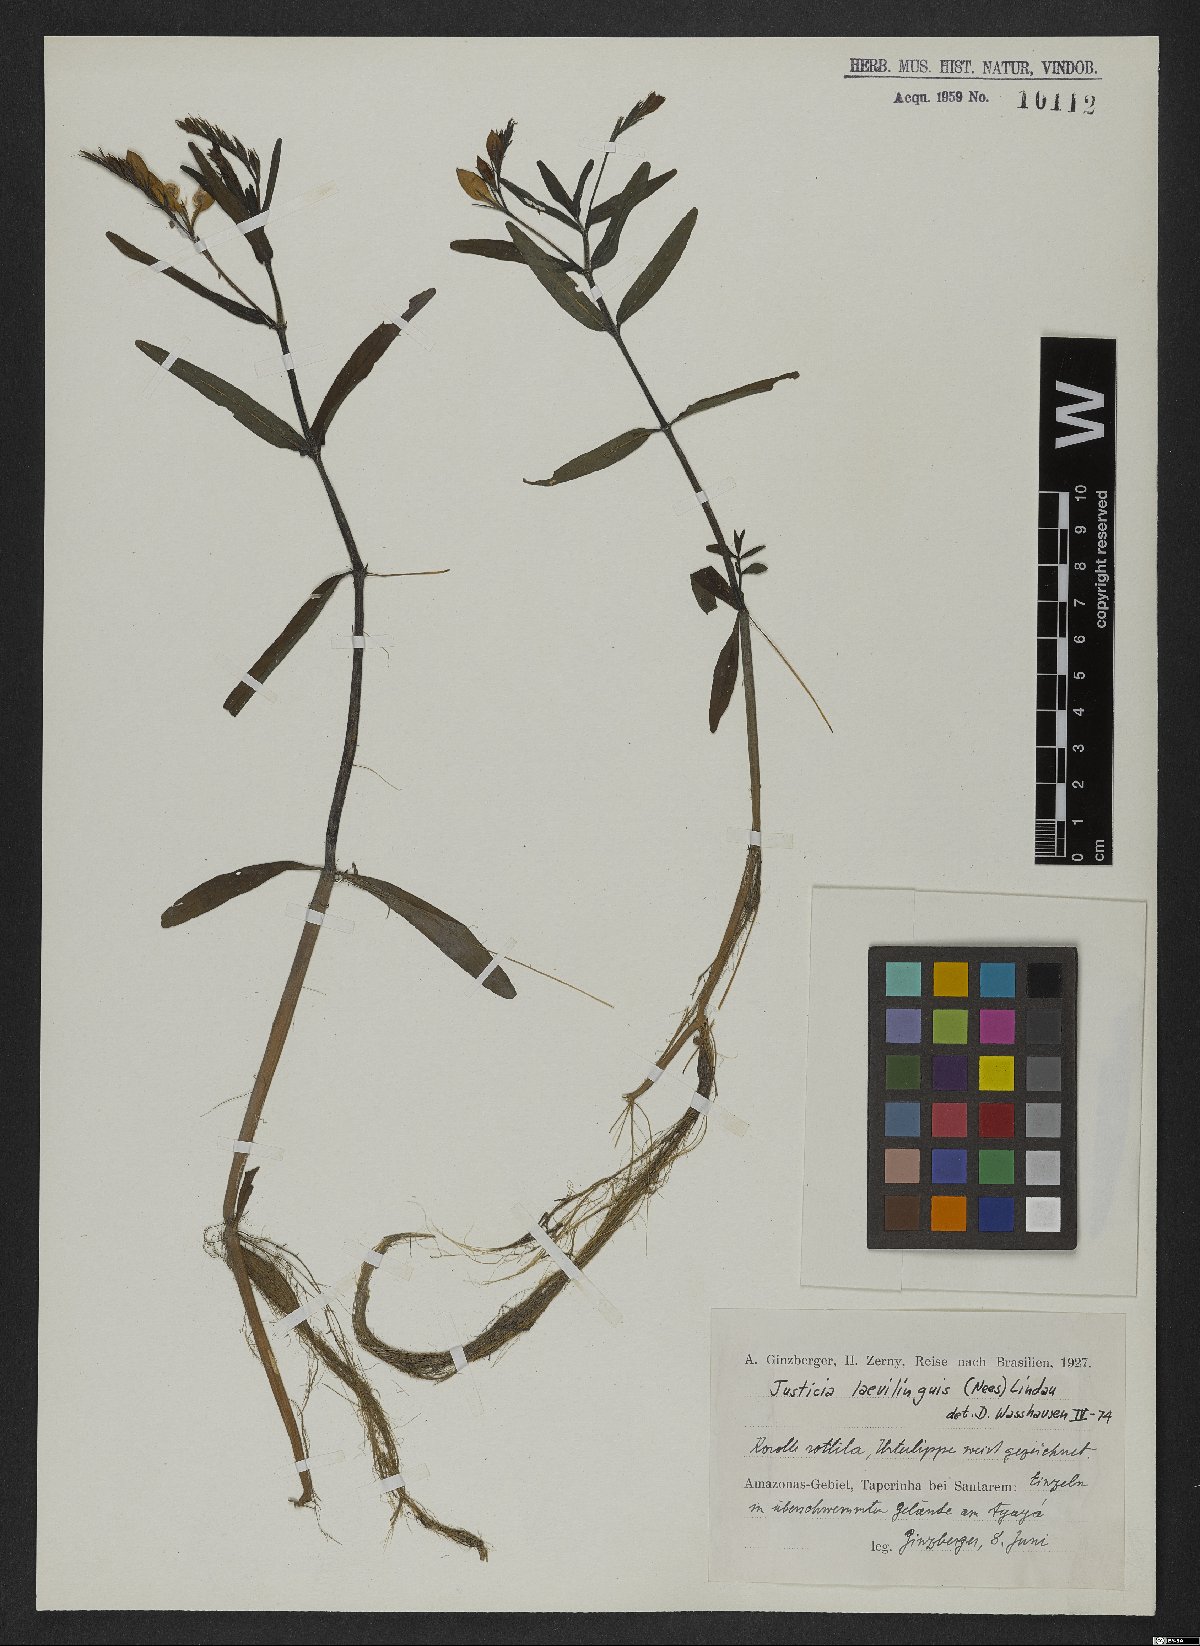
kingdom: Plantae
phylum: Tracheophyta
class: Magnoliopsida
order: Lamiales
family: Acanthaceae
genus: Dianthera
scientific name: Dianthera laevilinguis
